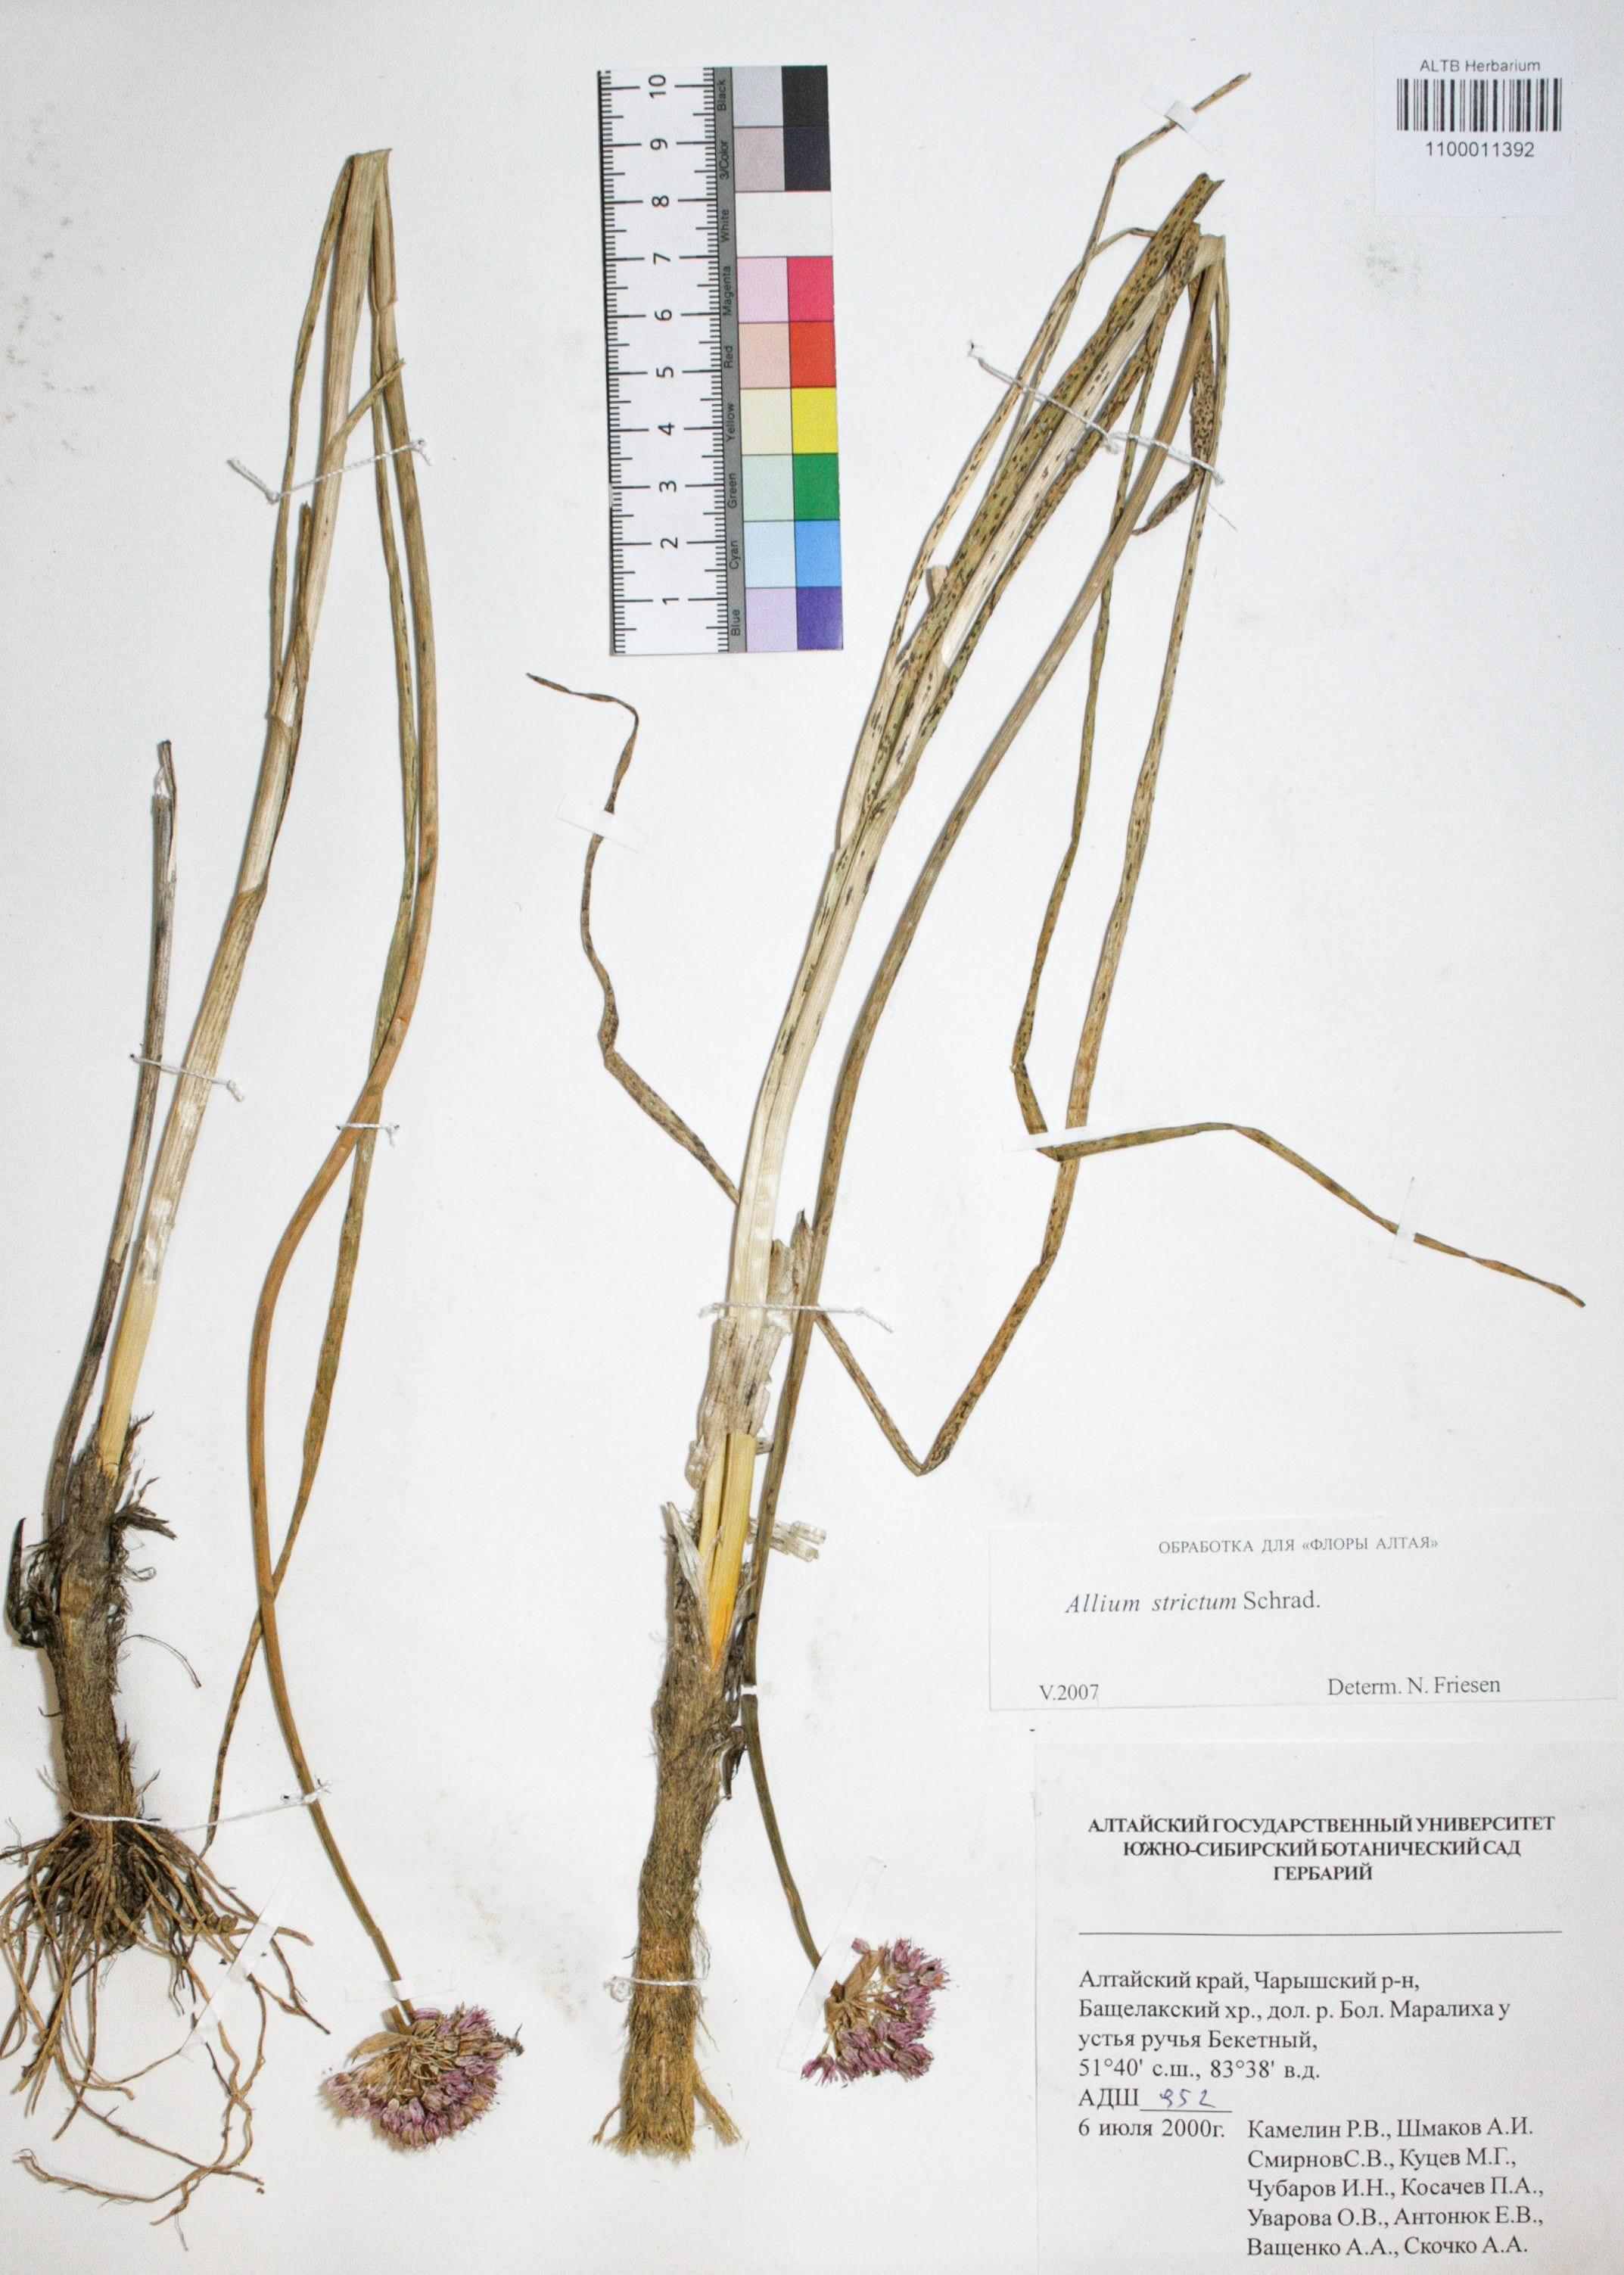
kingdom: Plantae
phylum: Tracheophyta
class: Liliopsida
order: Asparagales
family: Amaryllidaceae
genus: Allium
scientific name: Allium strictum
